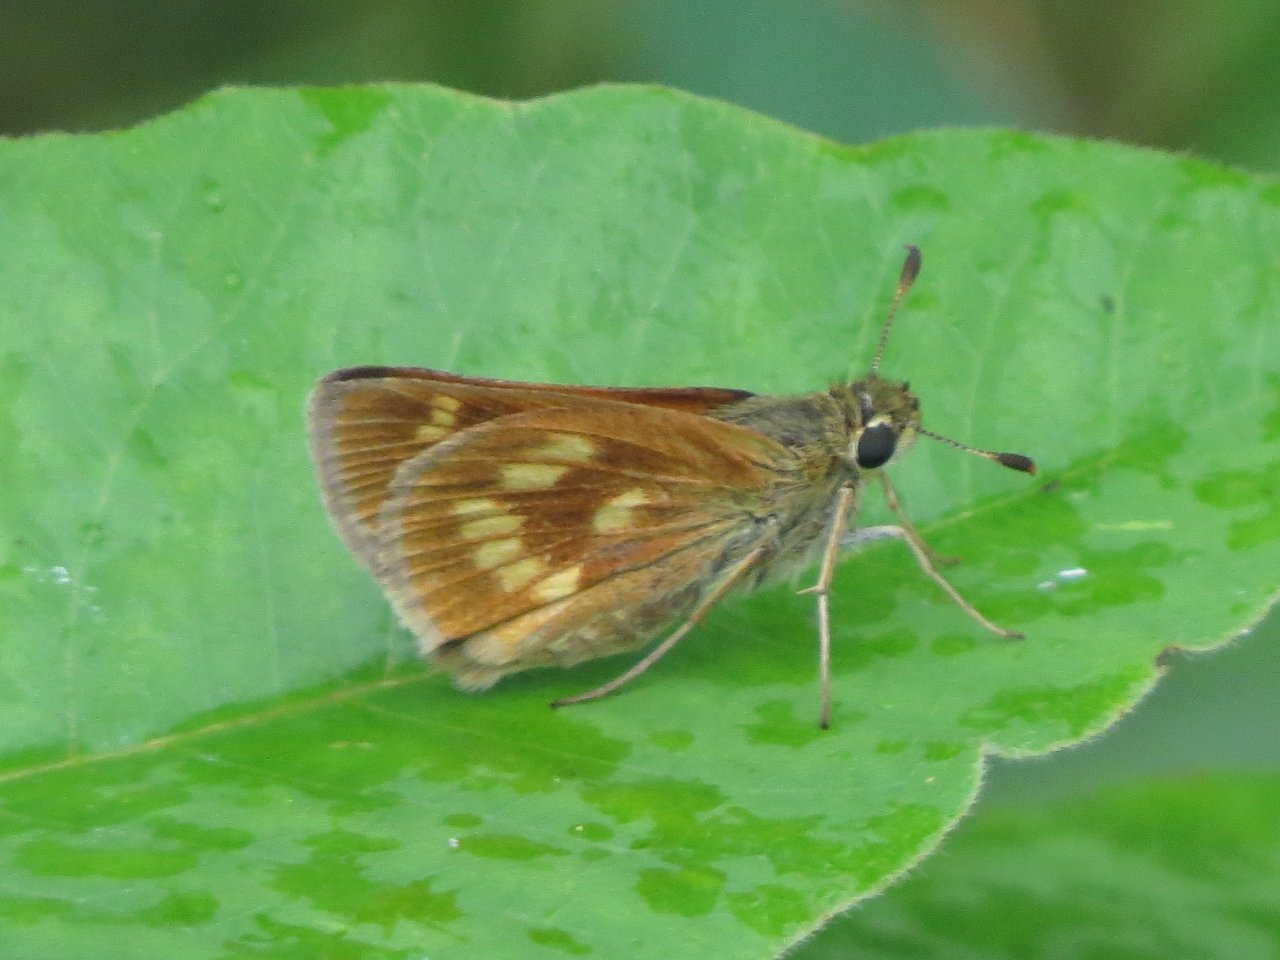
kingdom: Animalia
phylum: Arthropoda
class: Insecta
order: Lepidoptera
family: Hesperiidae
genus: Polites
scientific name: Polites
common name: Long Dash Skipper
